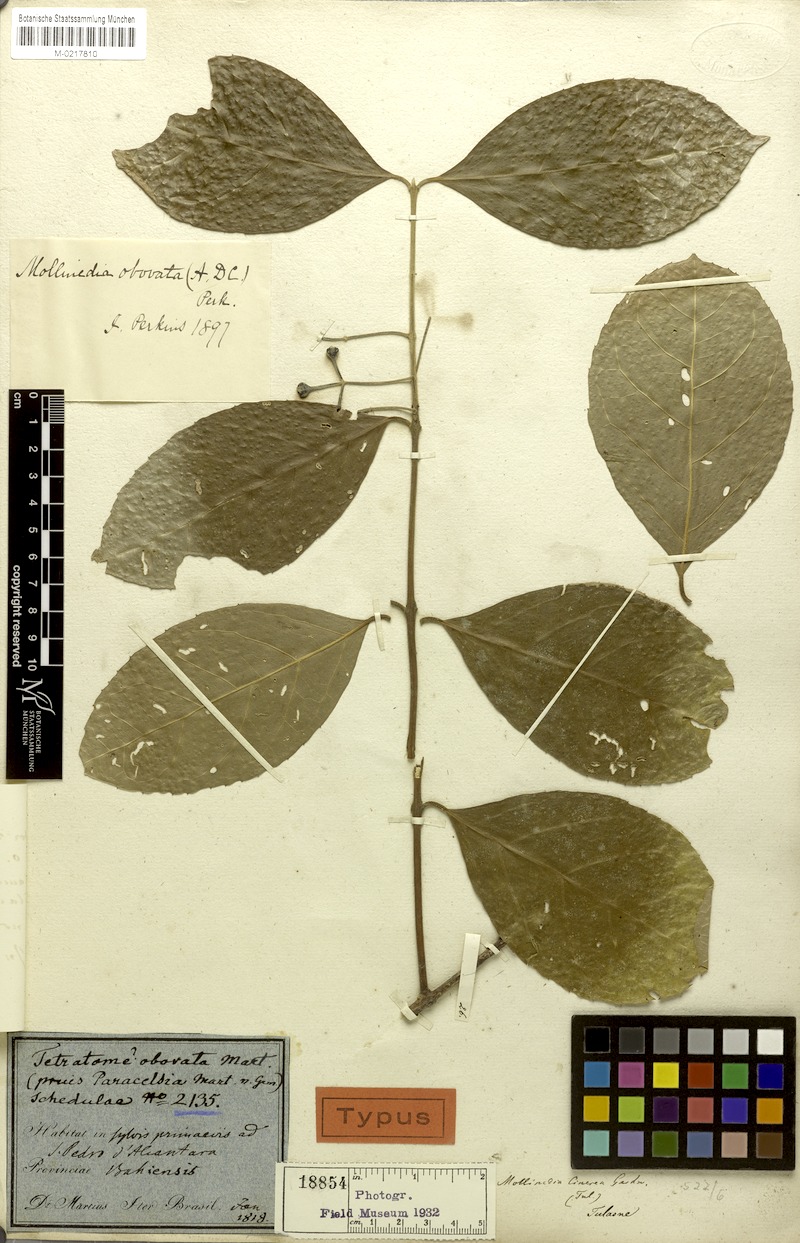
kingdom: Plantae
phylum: Tracheophyta
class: Magnoliopsida
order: Laurales
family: Monimiaceae
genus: Mollinedia
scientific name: Mollinedia ovata
